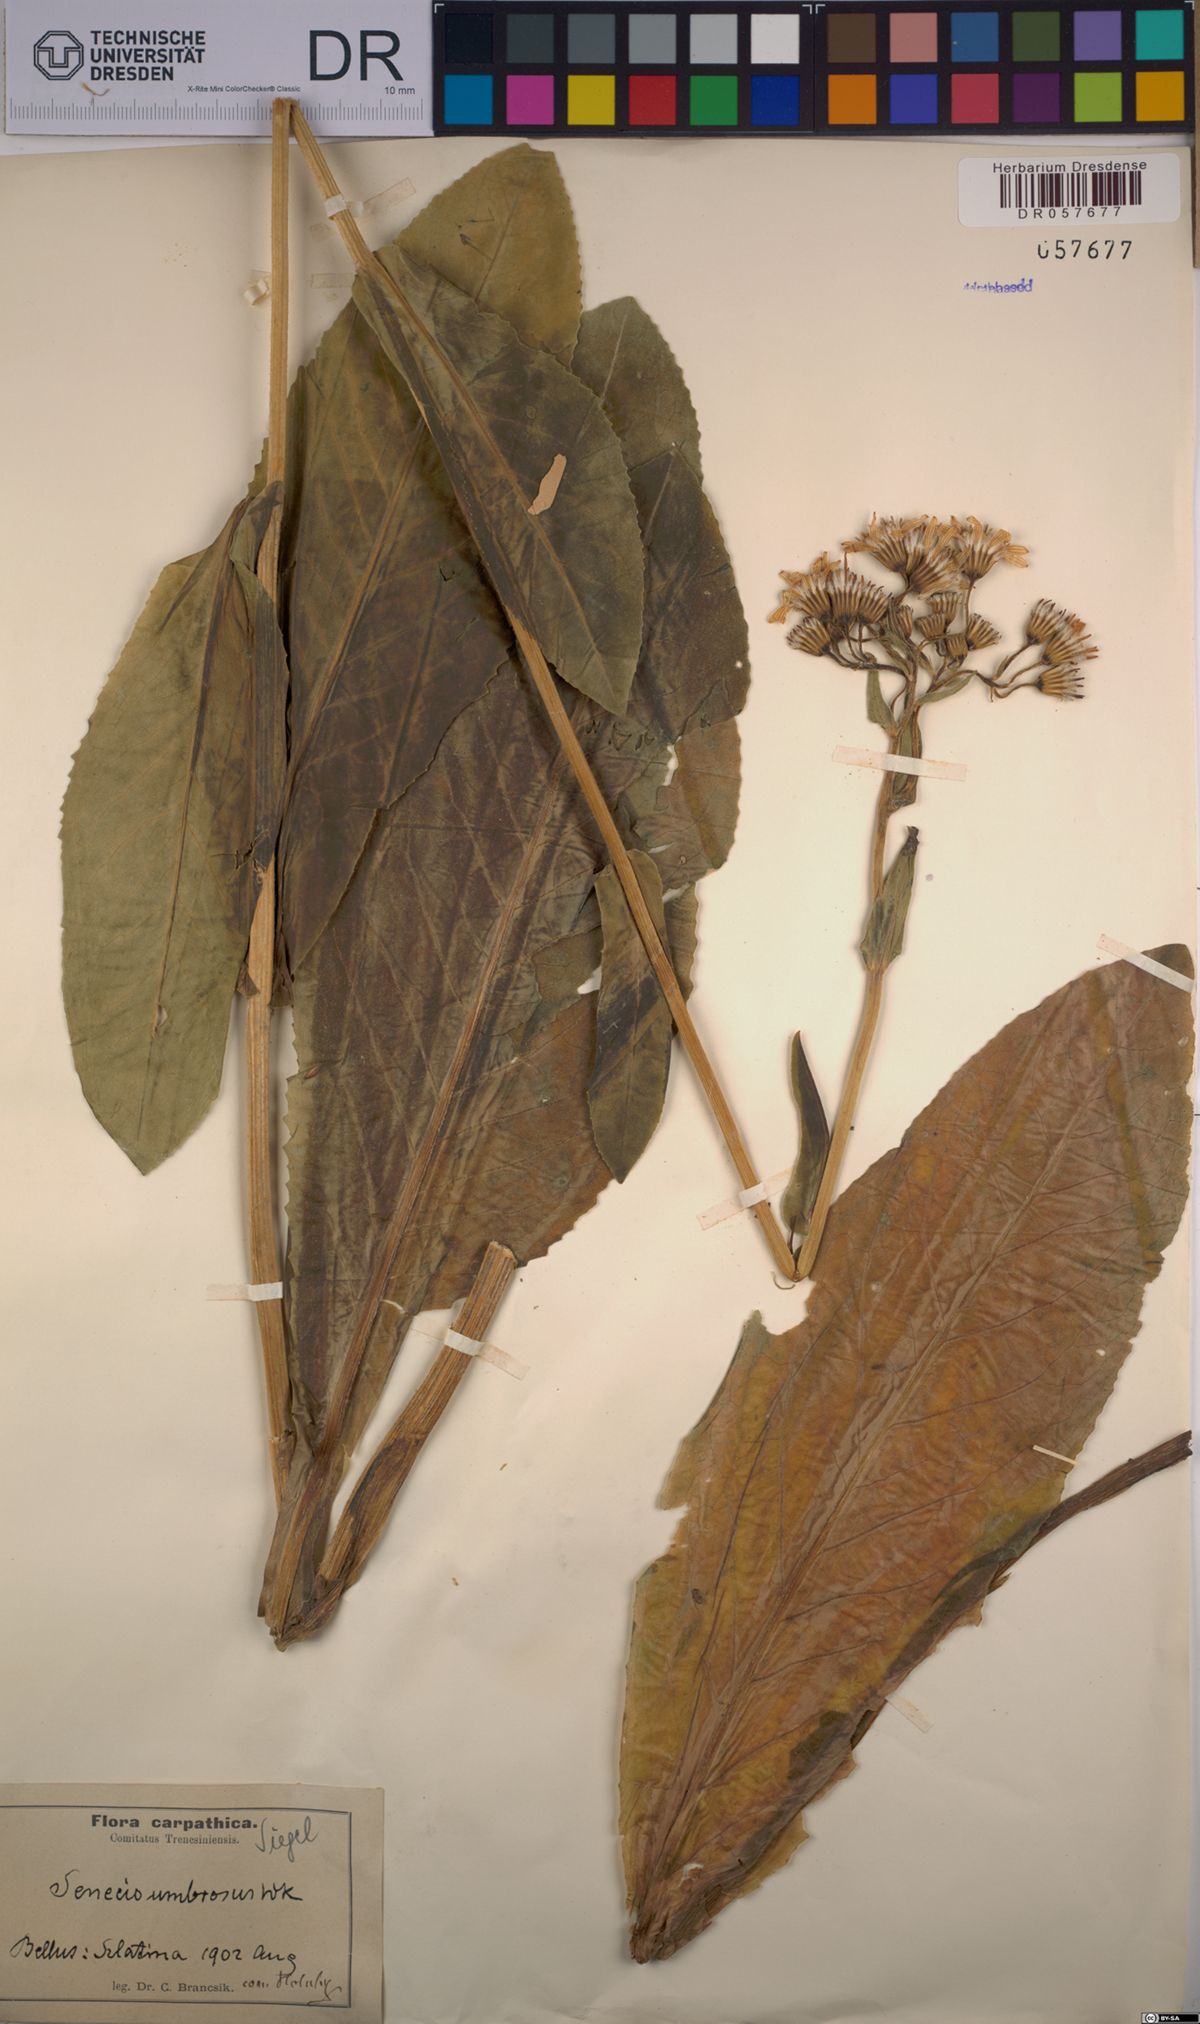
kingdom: Plantae
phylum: Tracheophyta
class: Magnoliopsida
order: Asterales
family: Asteraceae
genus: Senecio
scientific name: Senecio umbrosus
